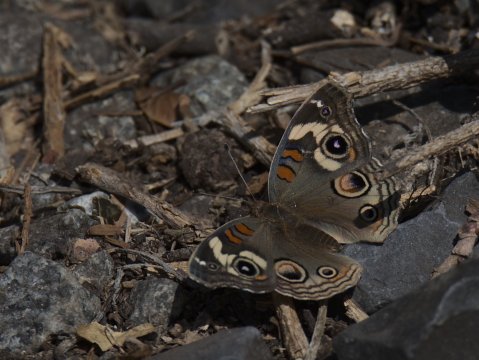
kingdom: Animalia
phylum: Arthropoda
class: Insecta
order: Lepidoptera
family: Nymphalidae
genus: Junonia
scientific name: Junonia
